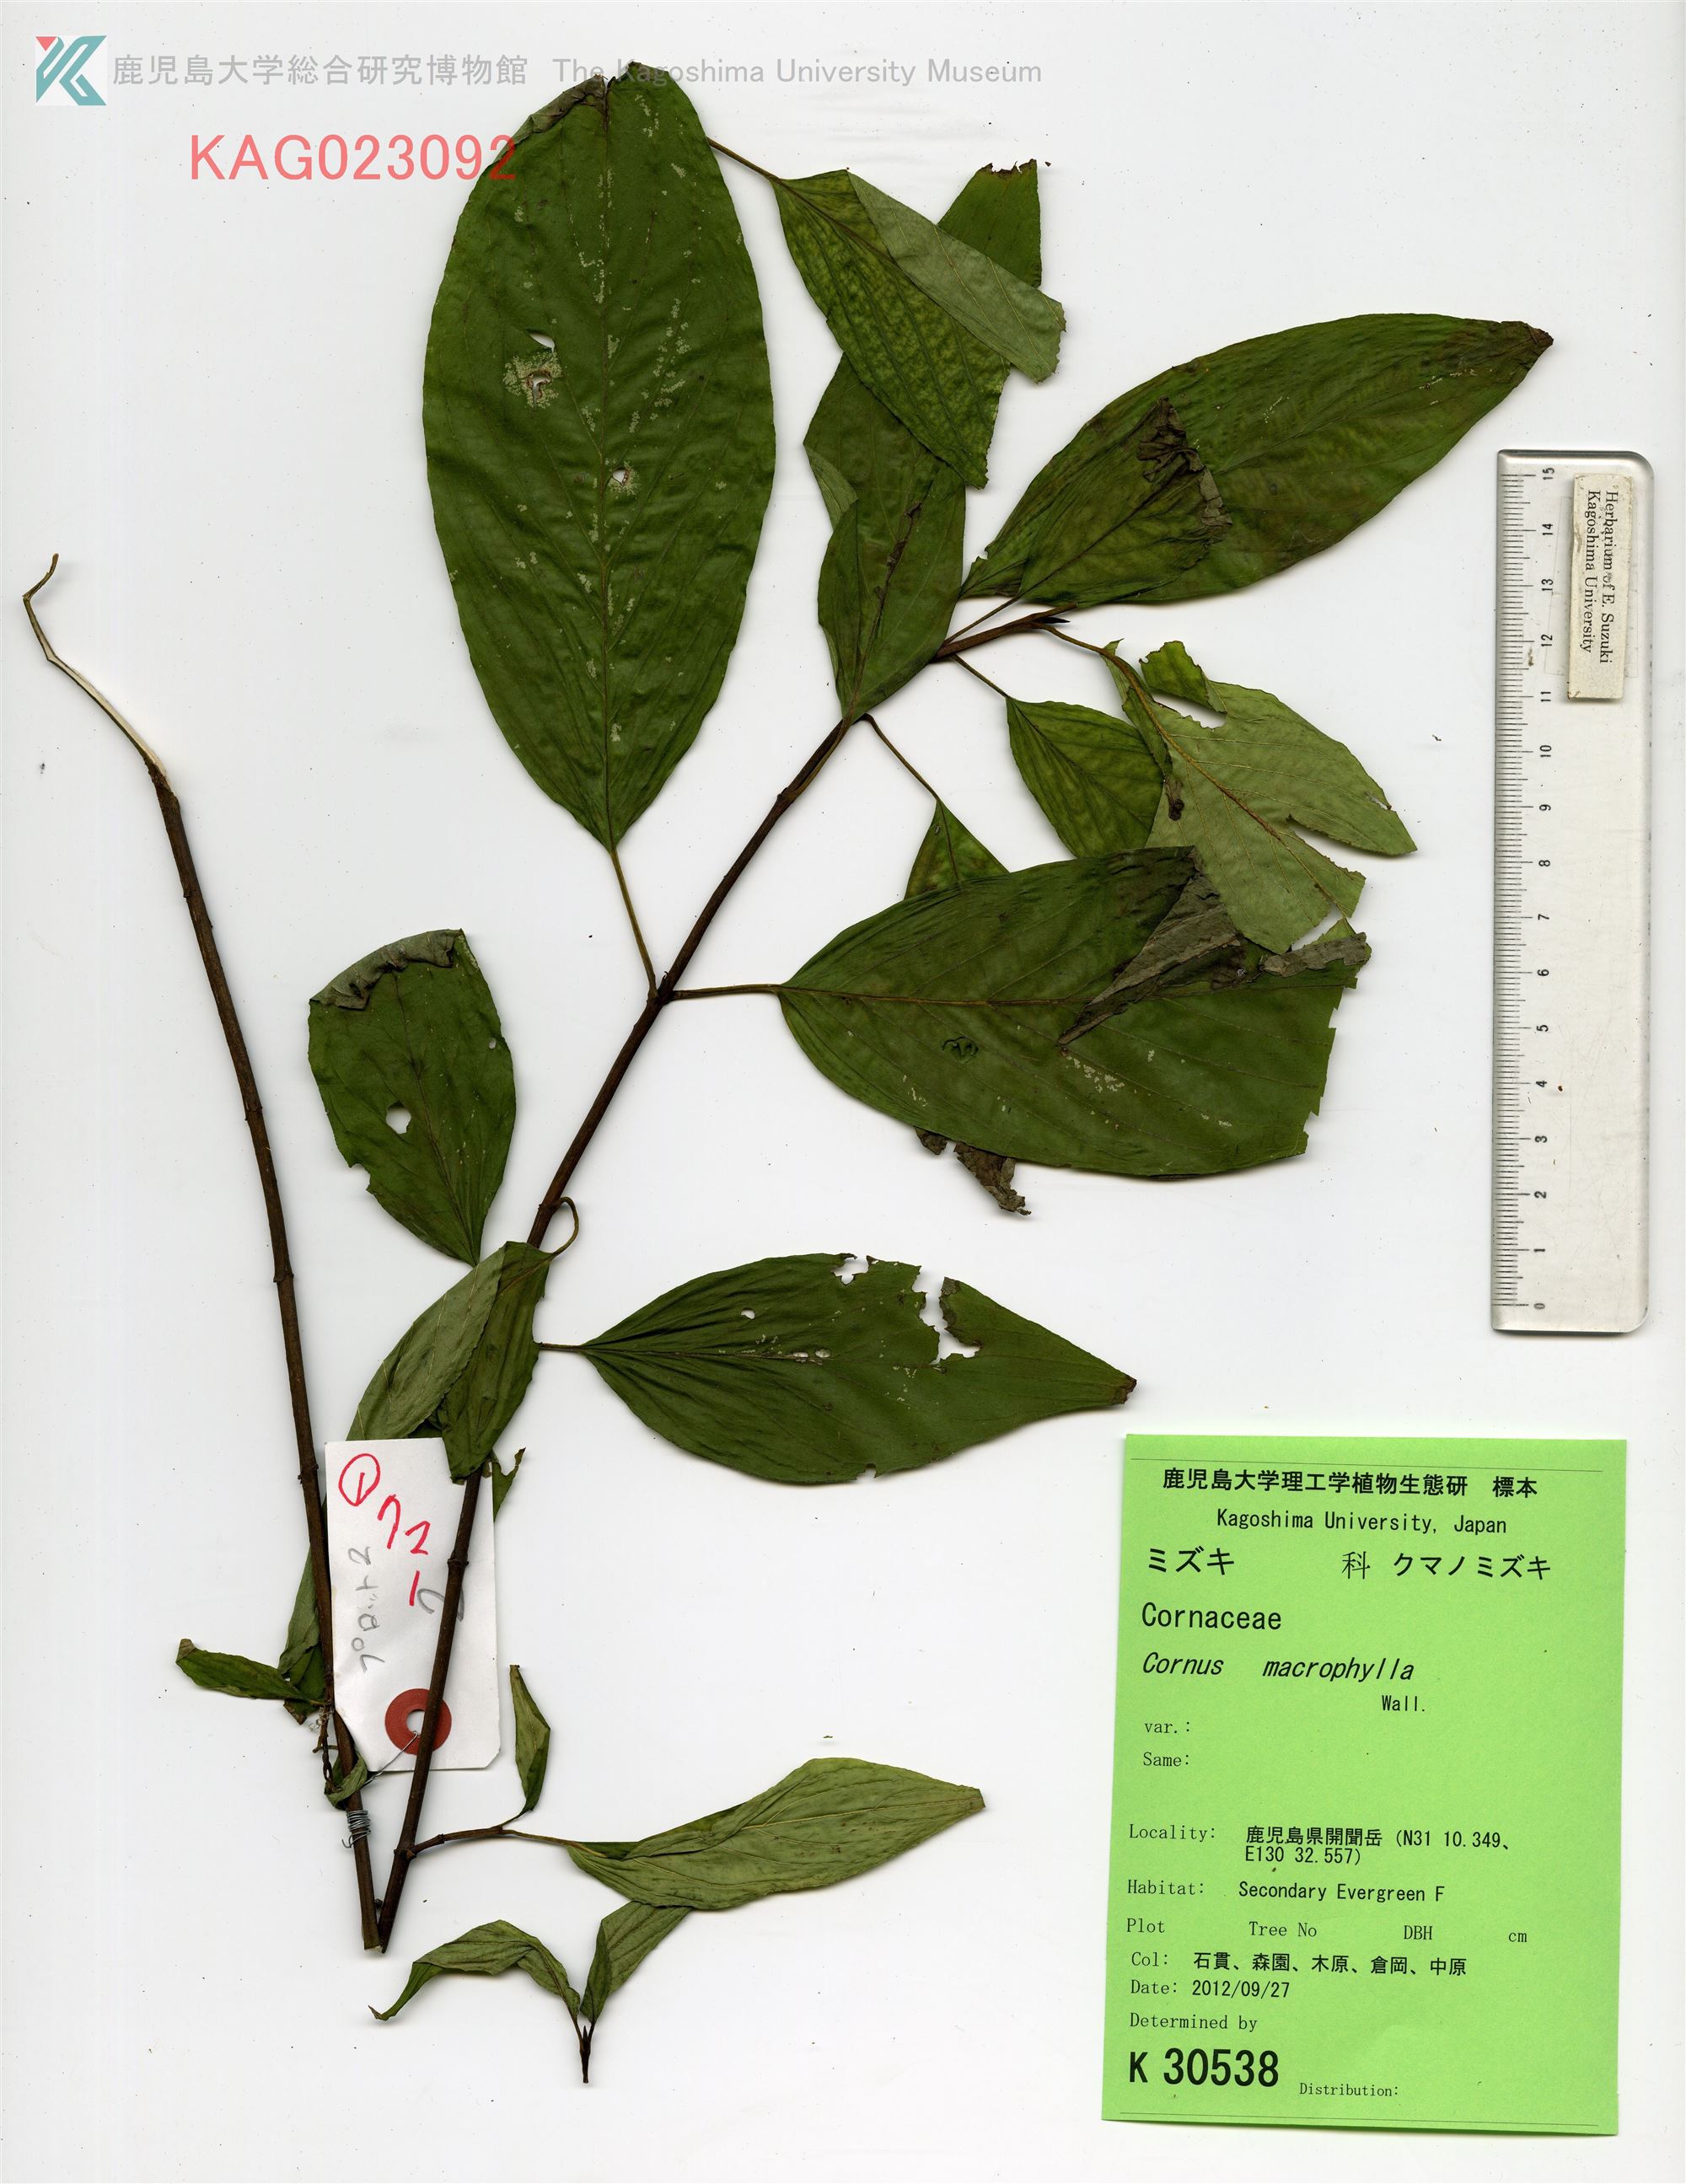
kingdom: Plantae
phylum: Tracheophyta
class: Magnoliopsida
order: Cornales
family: Cornaceae
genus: Cornus
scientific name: Cornus macrophylla
